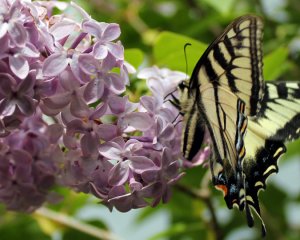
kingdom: Animalia
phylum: Arthropoda
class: Insecta
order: Lepidoptera
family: Papilionidae
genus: Pterourus
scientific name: Pterourus canadensis
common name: Canadian Tiger Swallowtail
